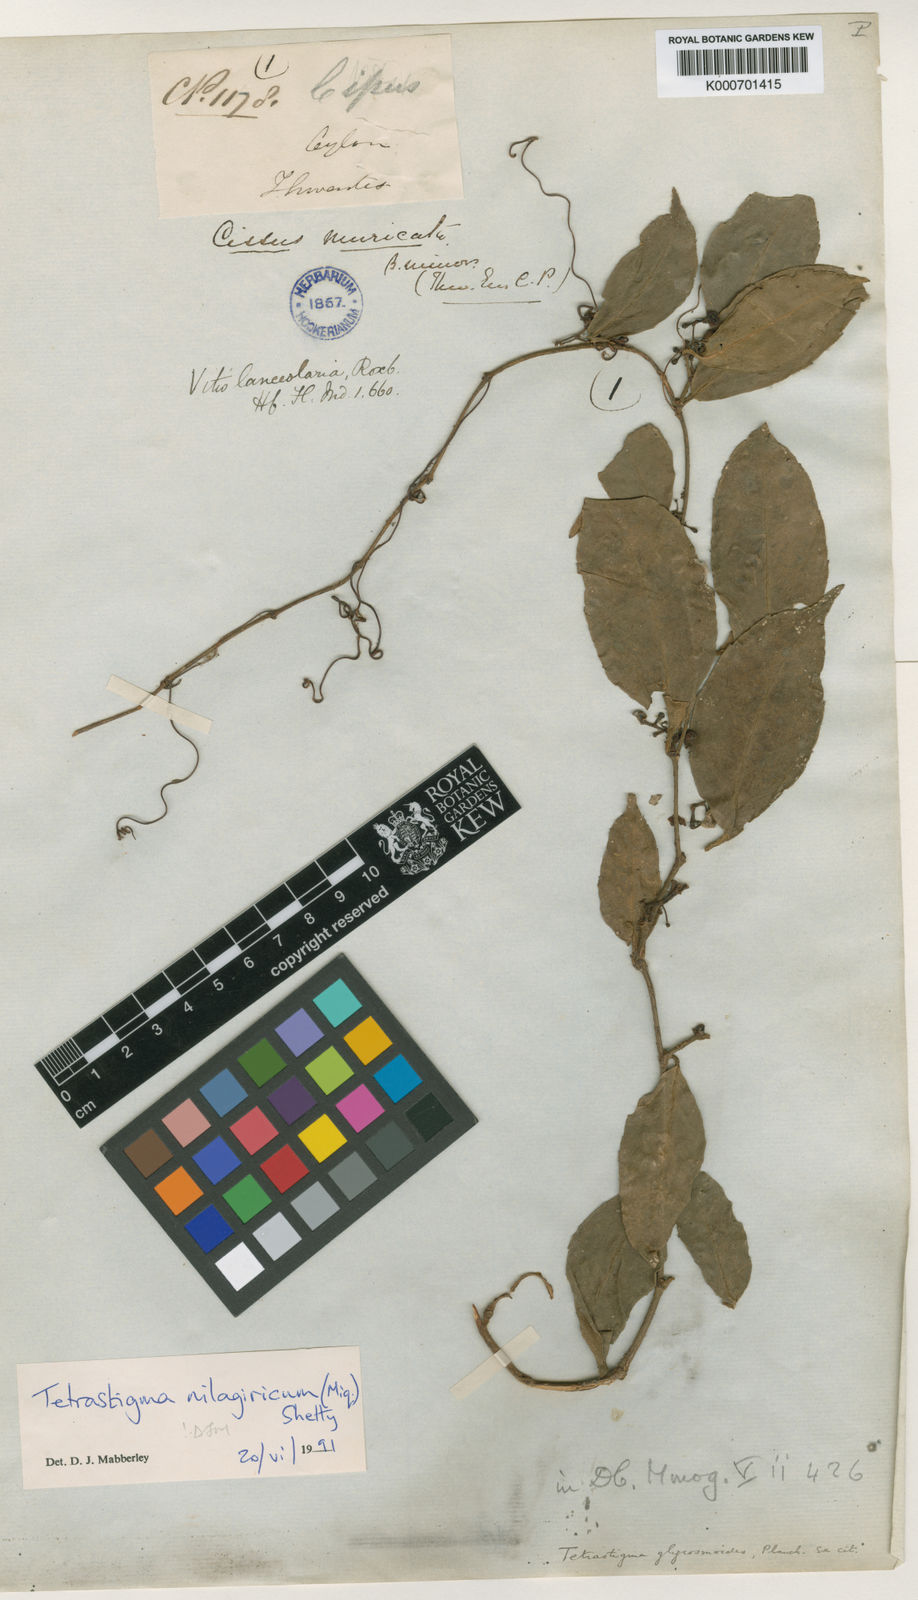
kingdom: Plantae
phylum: Tracheophyta
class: Magnoliopsida
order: Vitales
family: Vitaceae
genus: Tetrastigma
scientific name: Tetrastigma nilagiricum
